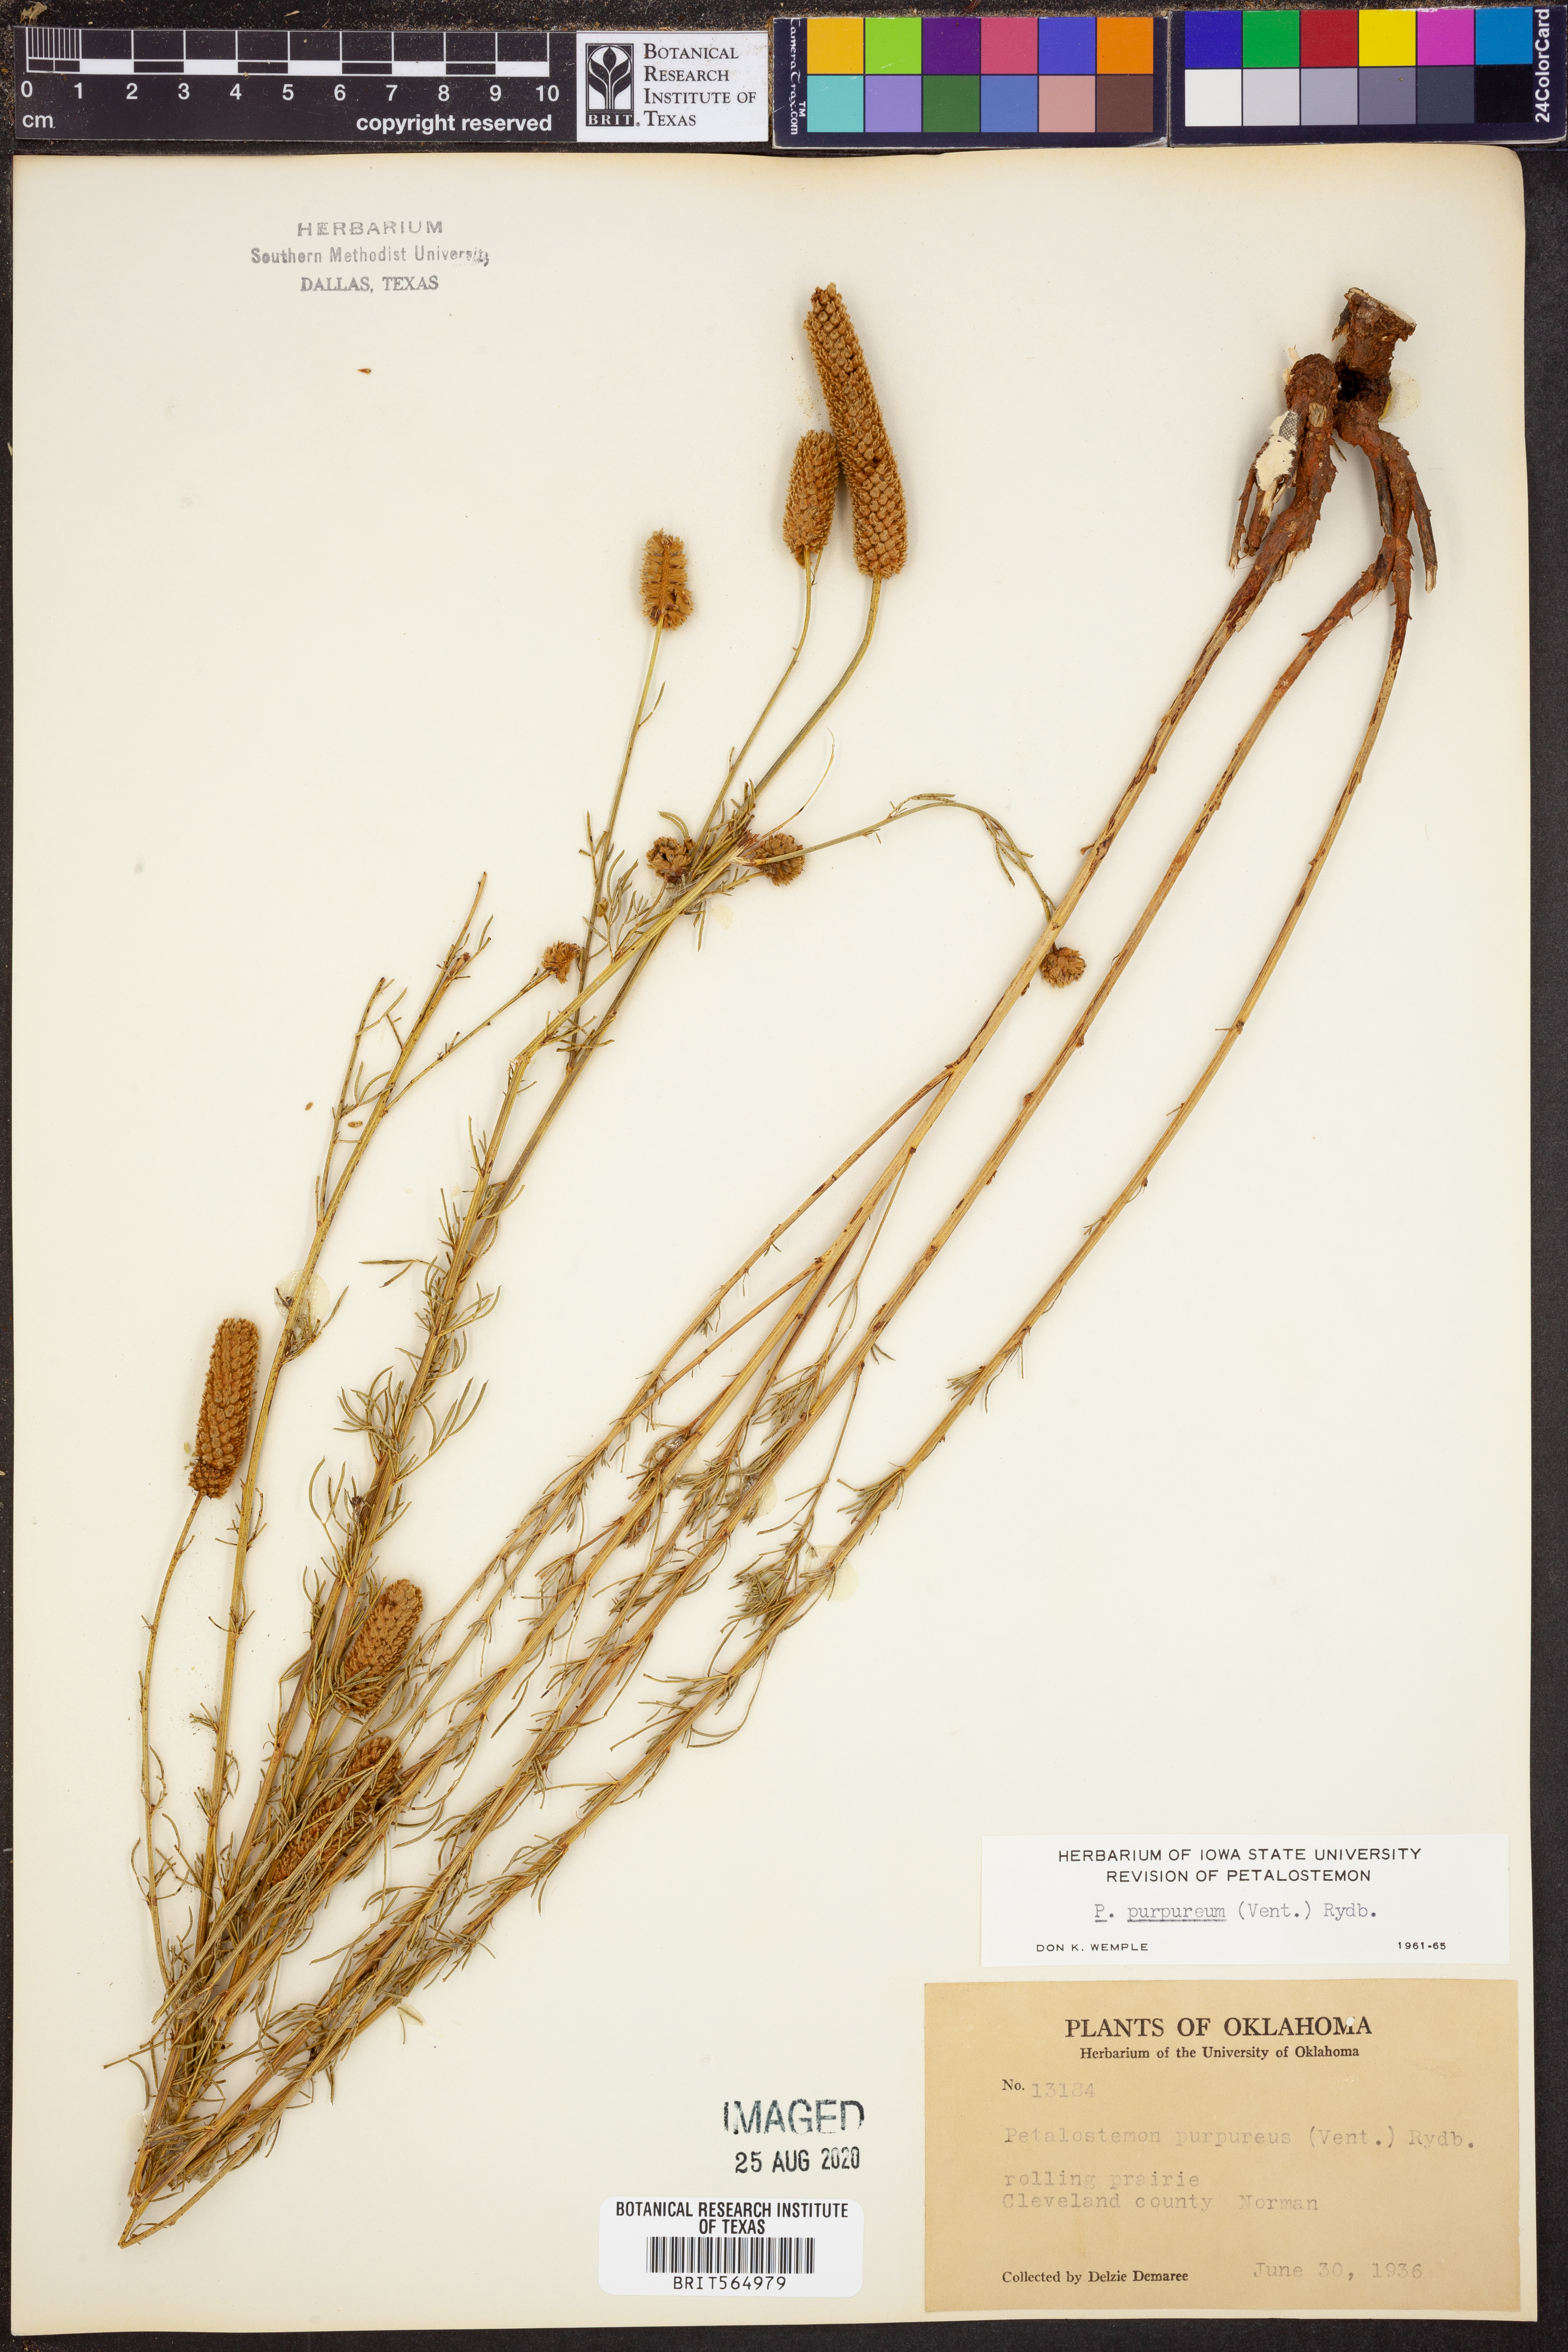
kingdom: Plantae
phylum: Tracheophyta
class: Magnoliopsida
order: Fabales
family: Fabaceae
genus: Dalea
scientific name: Dalea purpurea
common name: Purple prairie-clover
